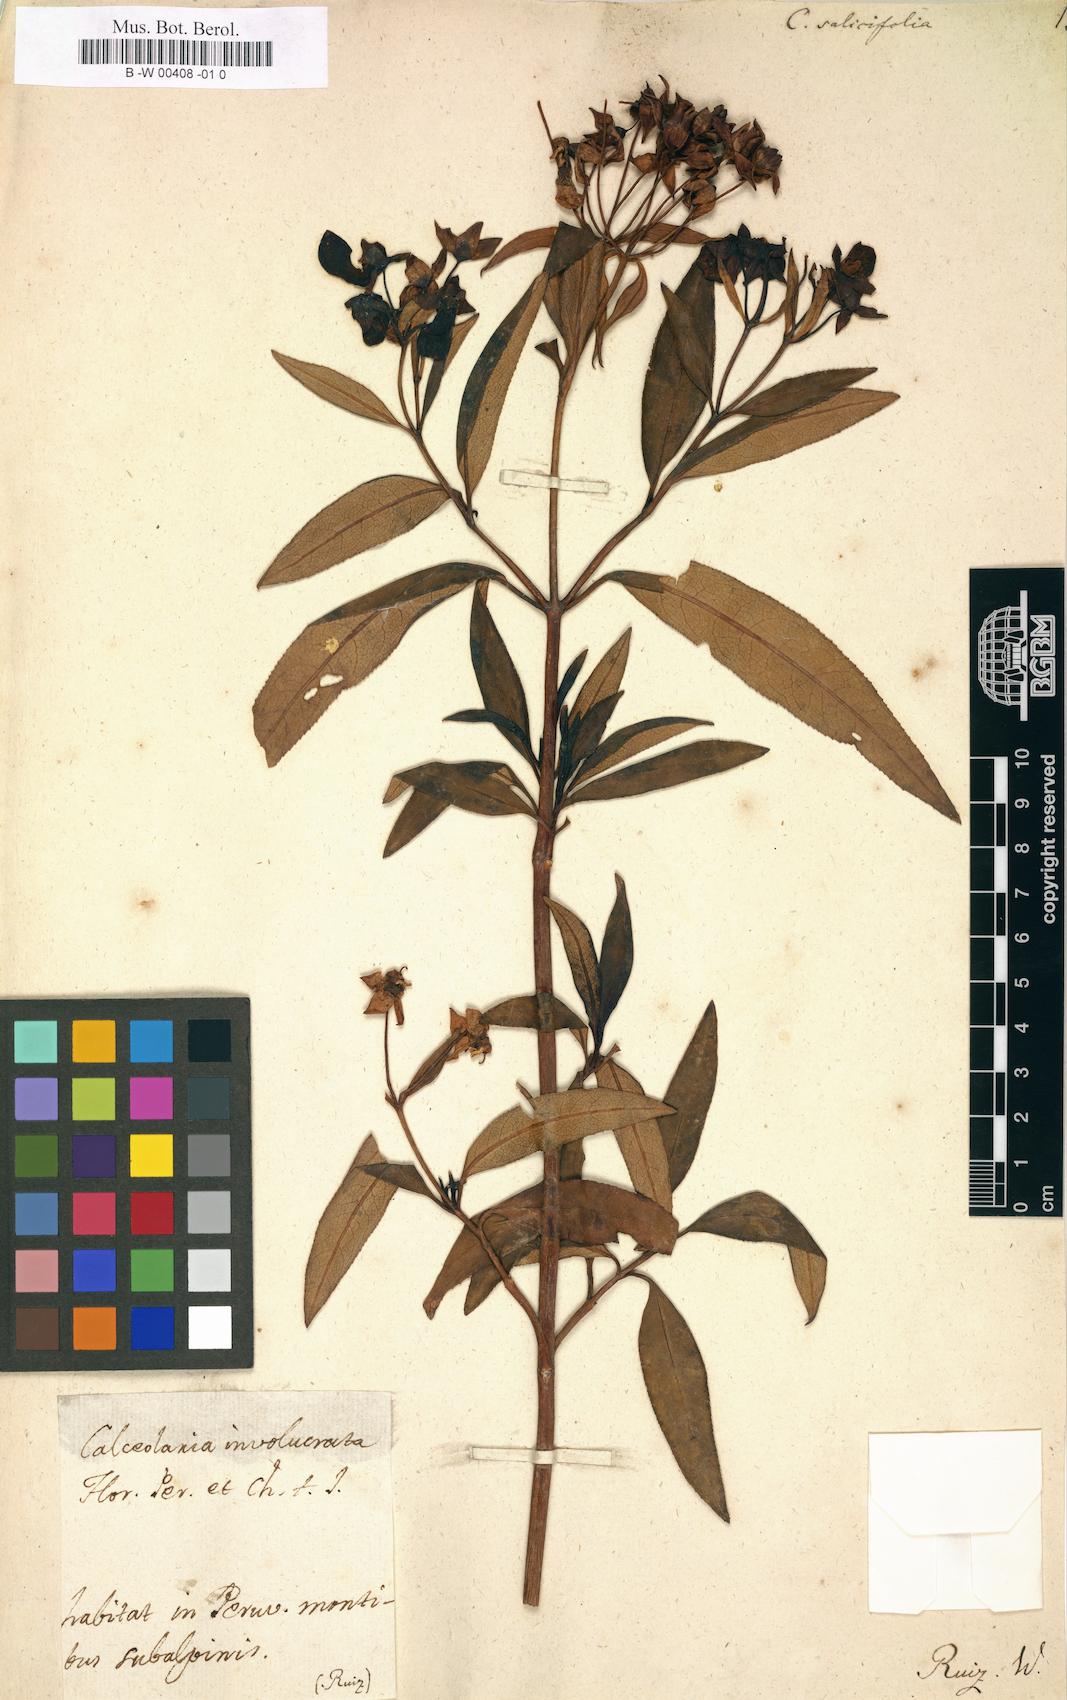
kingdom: Plantae
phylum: Tracheophyta
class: Magnoliopsida
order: Lamiales
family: Calceolariaceae
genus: Calceolaria
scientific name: Calceolaria salicifolia
